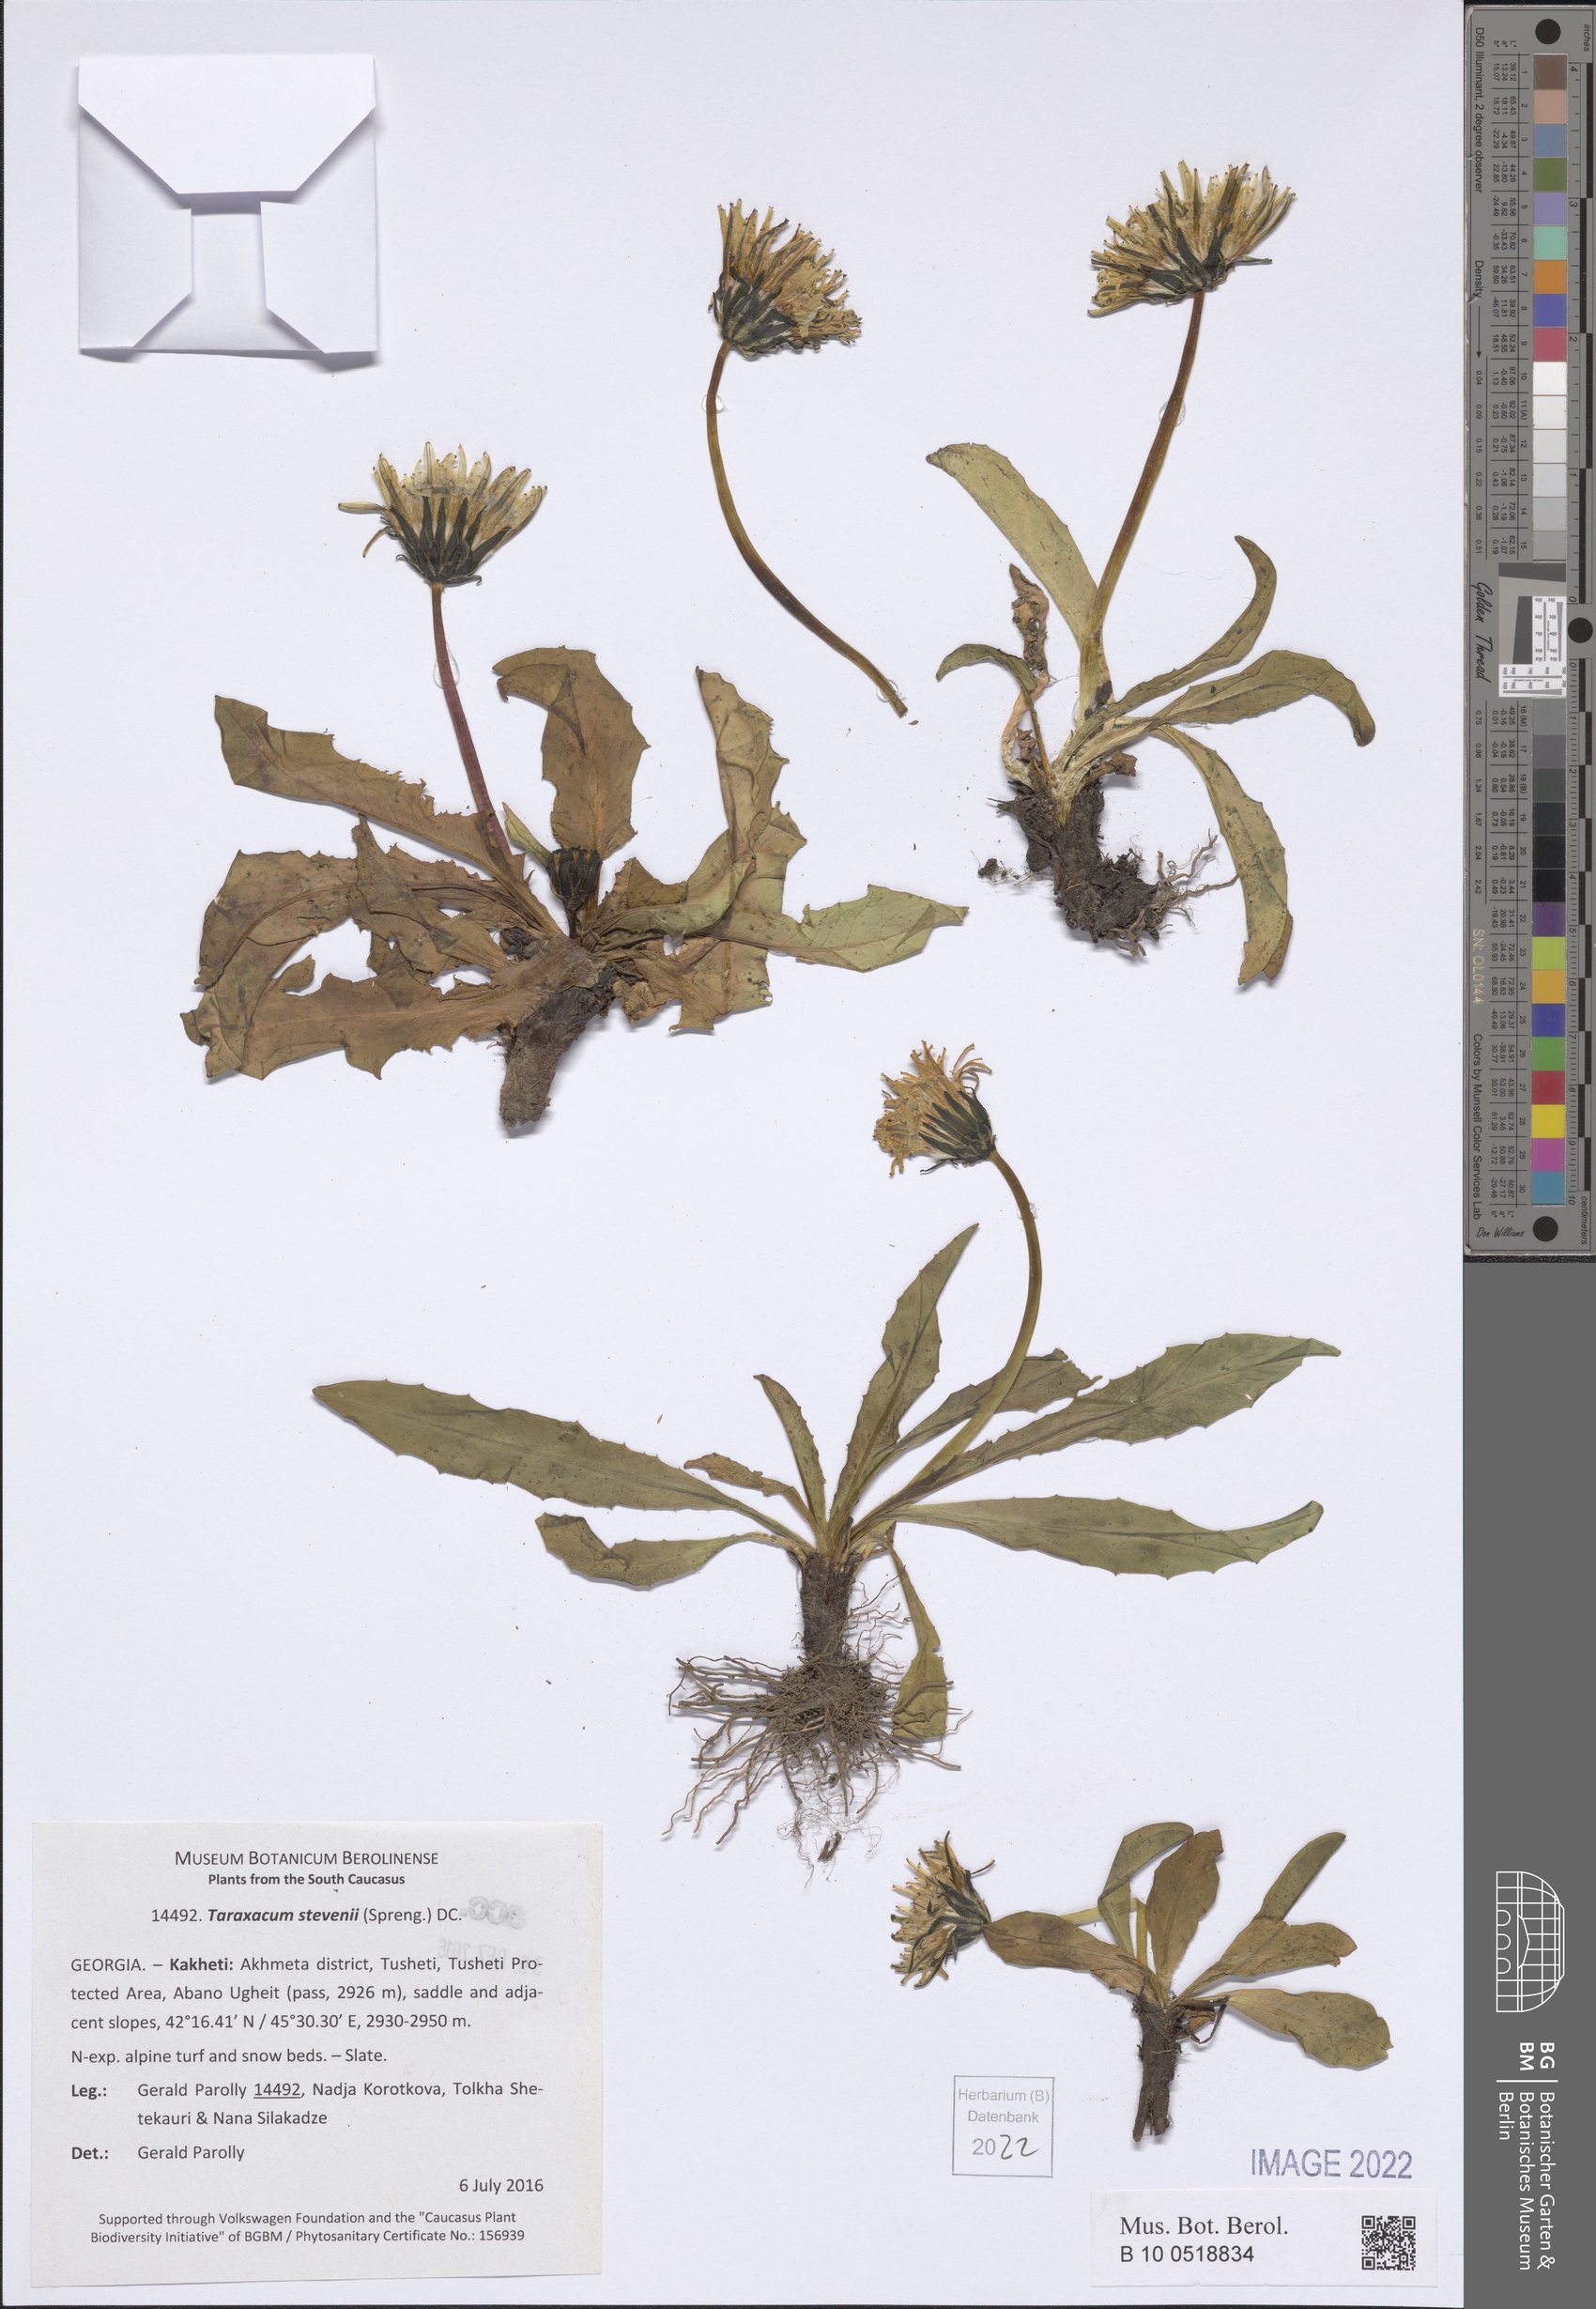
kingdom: Plantae
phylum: Tracheophyta
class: Magnoliopsida
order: Asterales
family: Asteraceae
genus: Taraxacum
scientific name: Taraxacum stevenii
